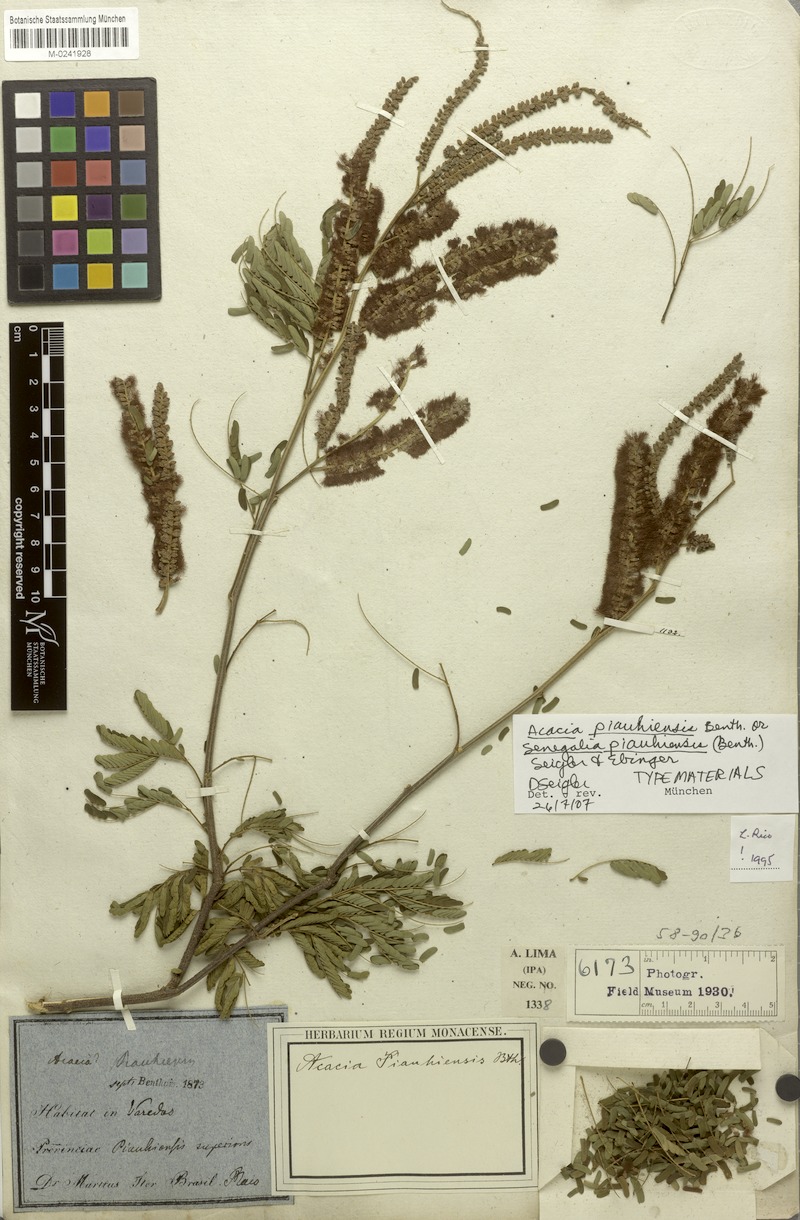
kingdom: Plantae
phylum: Tracheophyta
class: Magnoliopsida
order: Fabales
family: Fabaceae
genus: Senegalia
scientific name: Senegalia piauhiensis
